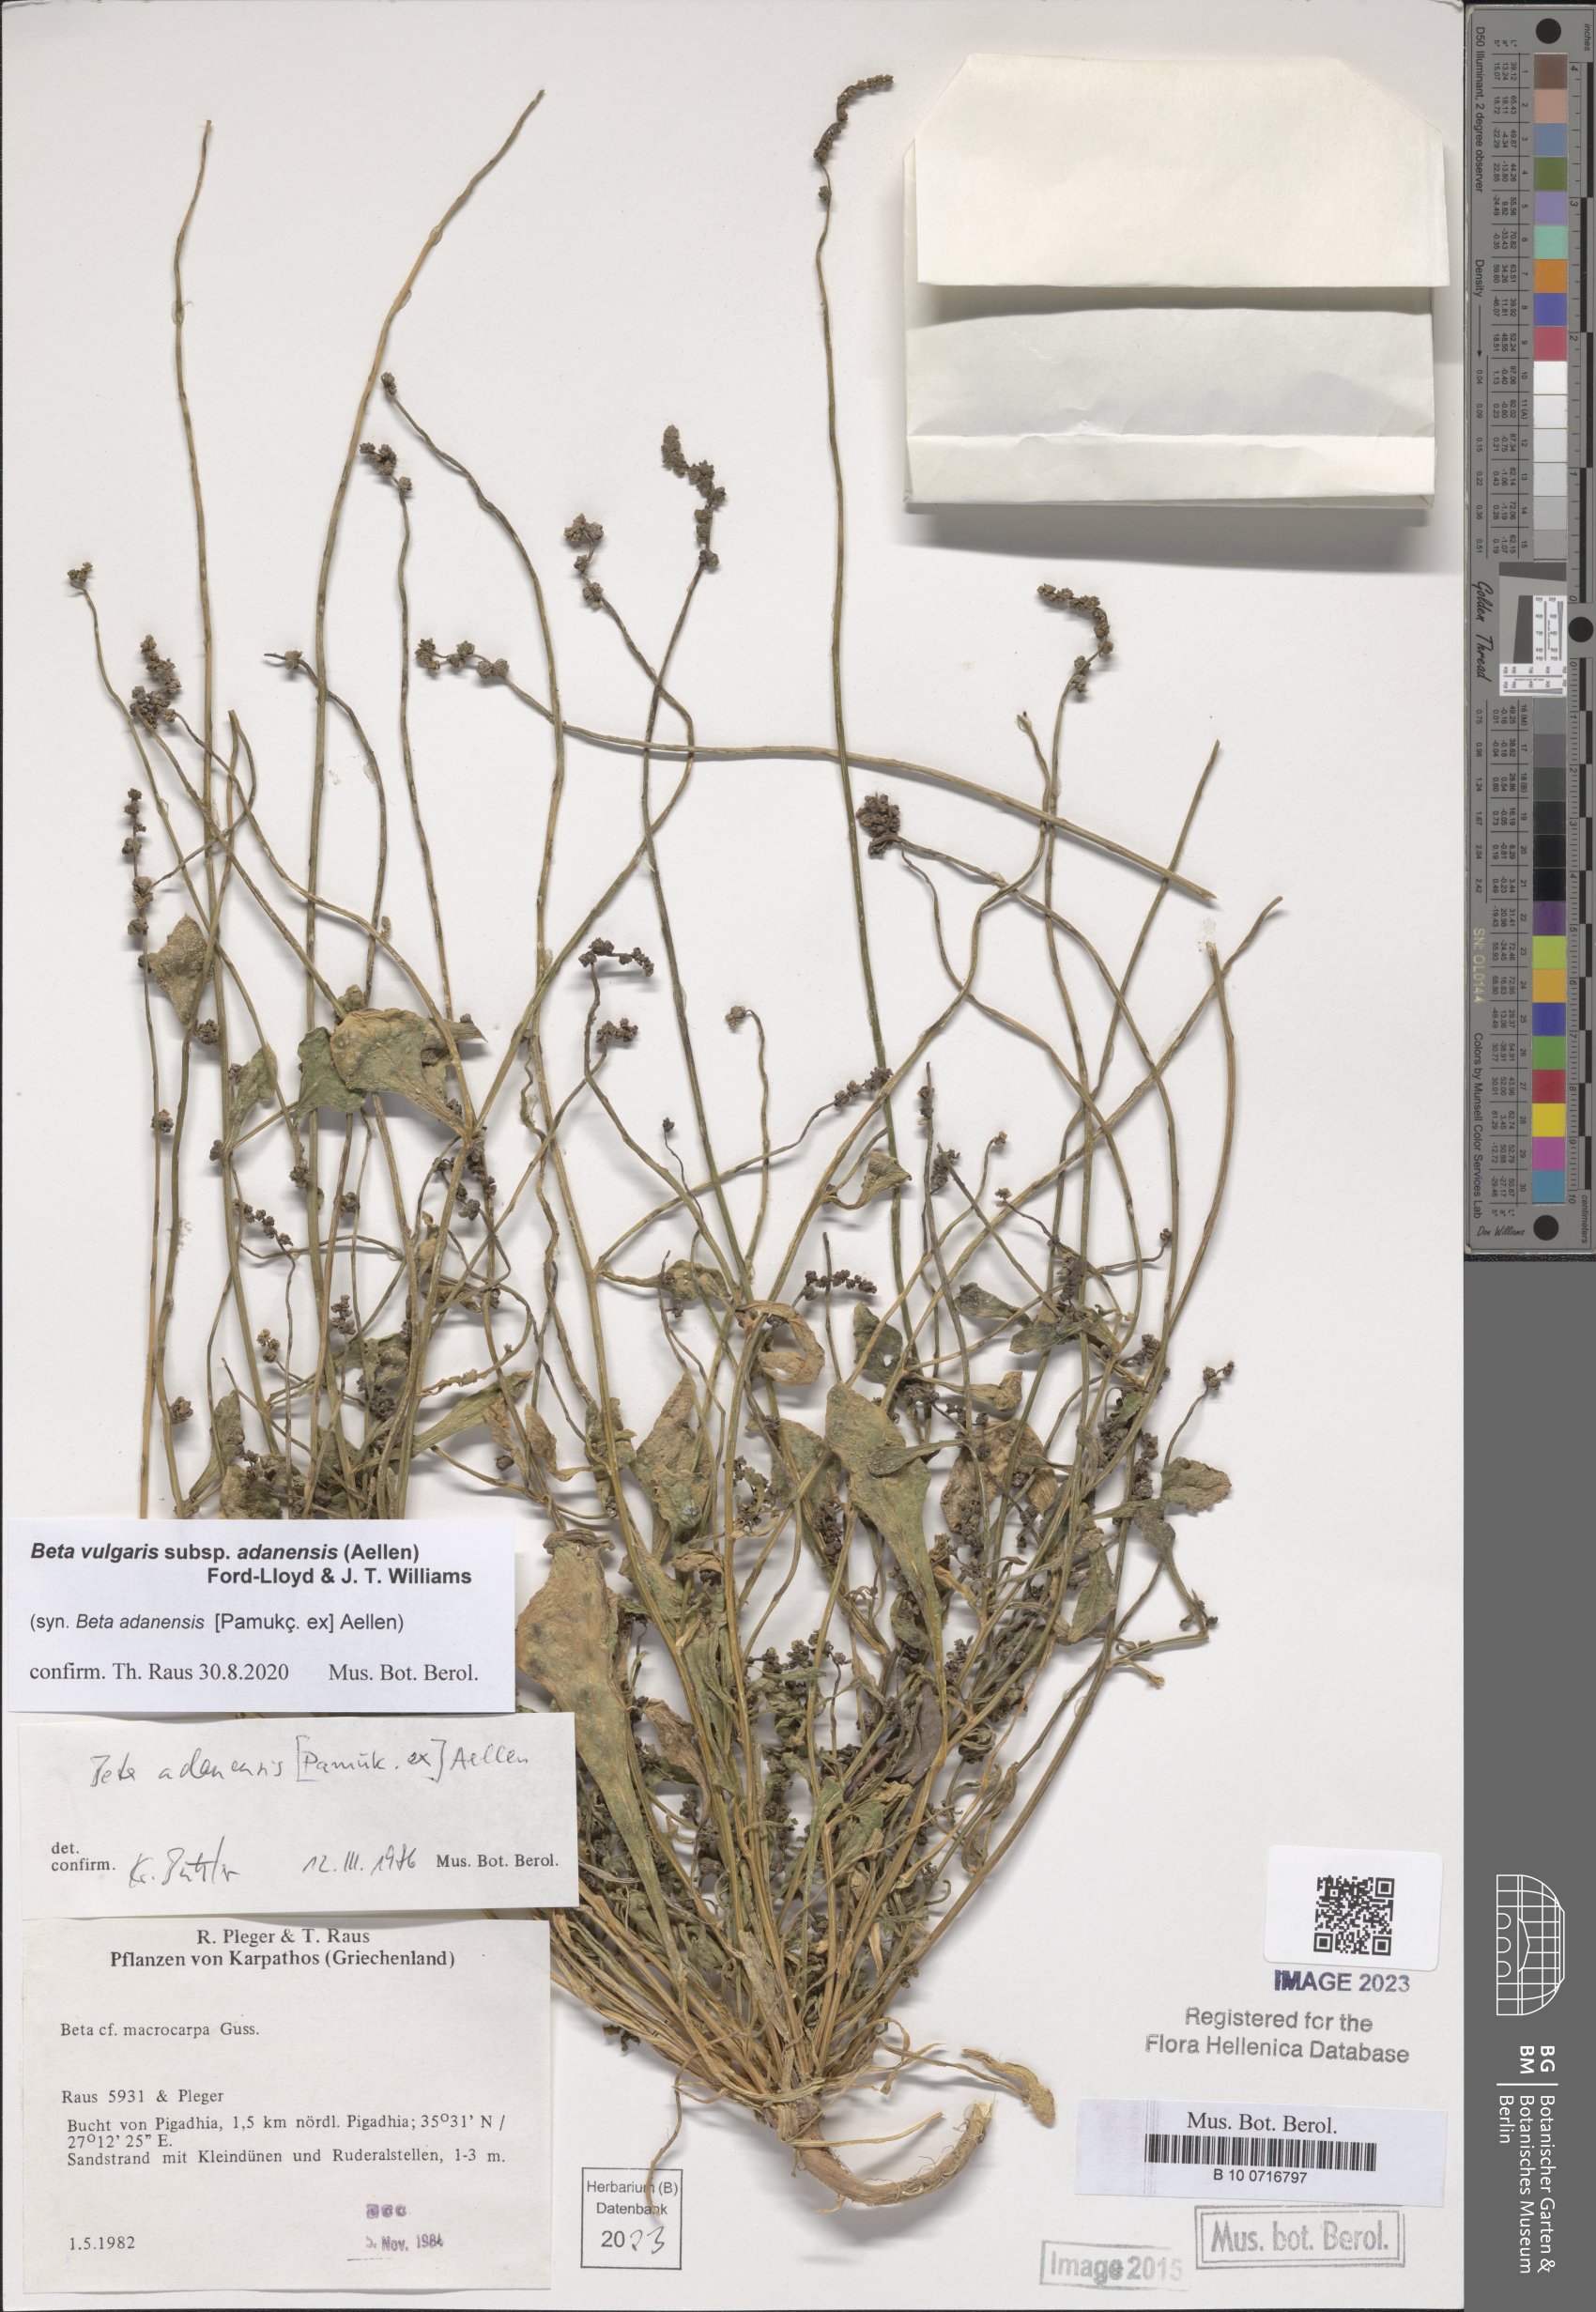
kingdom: Plantae
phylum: Tracheophyta
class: Magnoliopsida
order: Caryophyllales
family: Amaranthaceae
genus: Beta
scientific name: Beta adanensis
